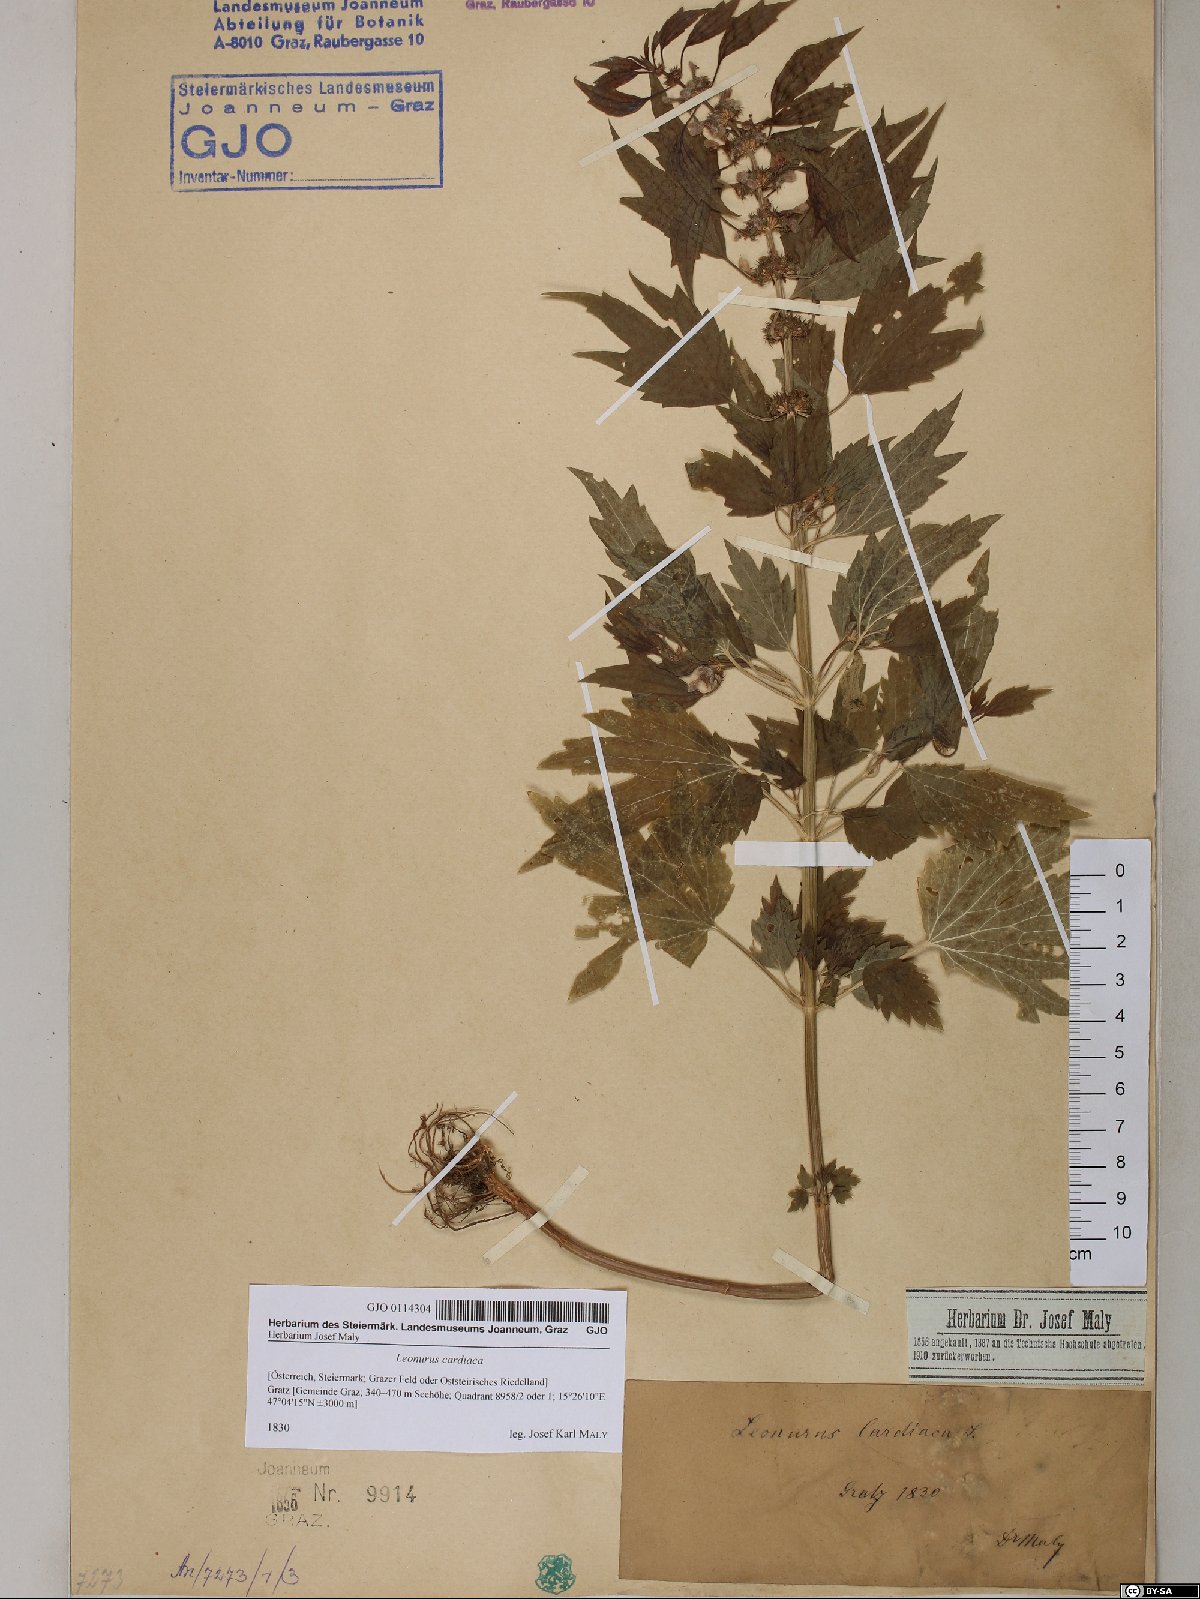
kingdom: Plantae
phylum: Tracheophyta
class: Magnoliopsida
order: Lamiales
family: Lamiaceae
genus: Leonurus
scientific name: Leonurus cardiaca
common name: Motherwort
